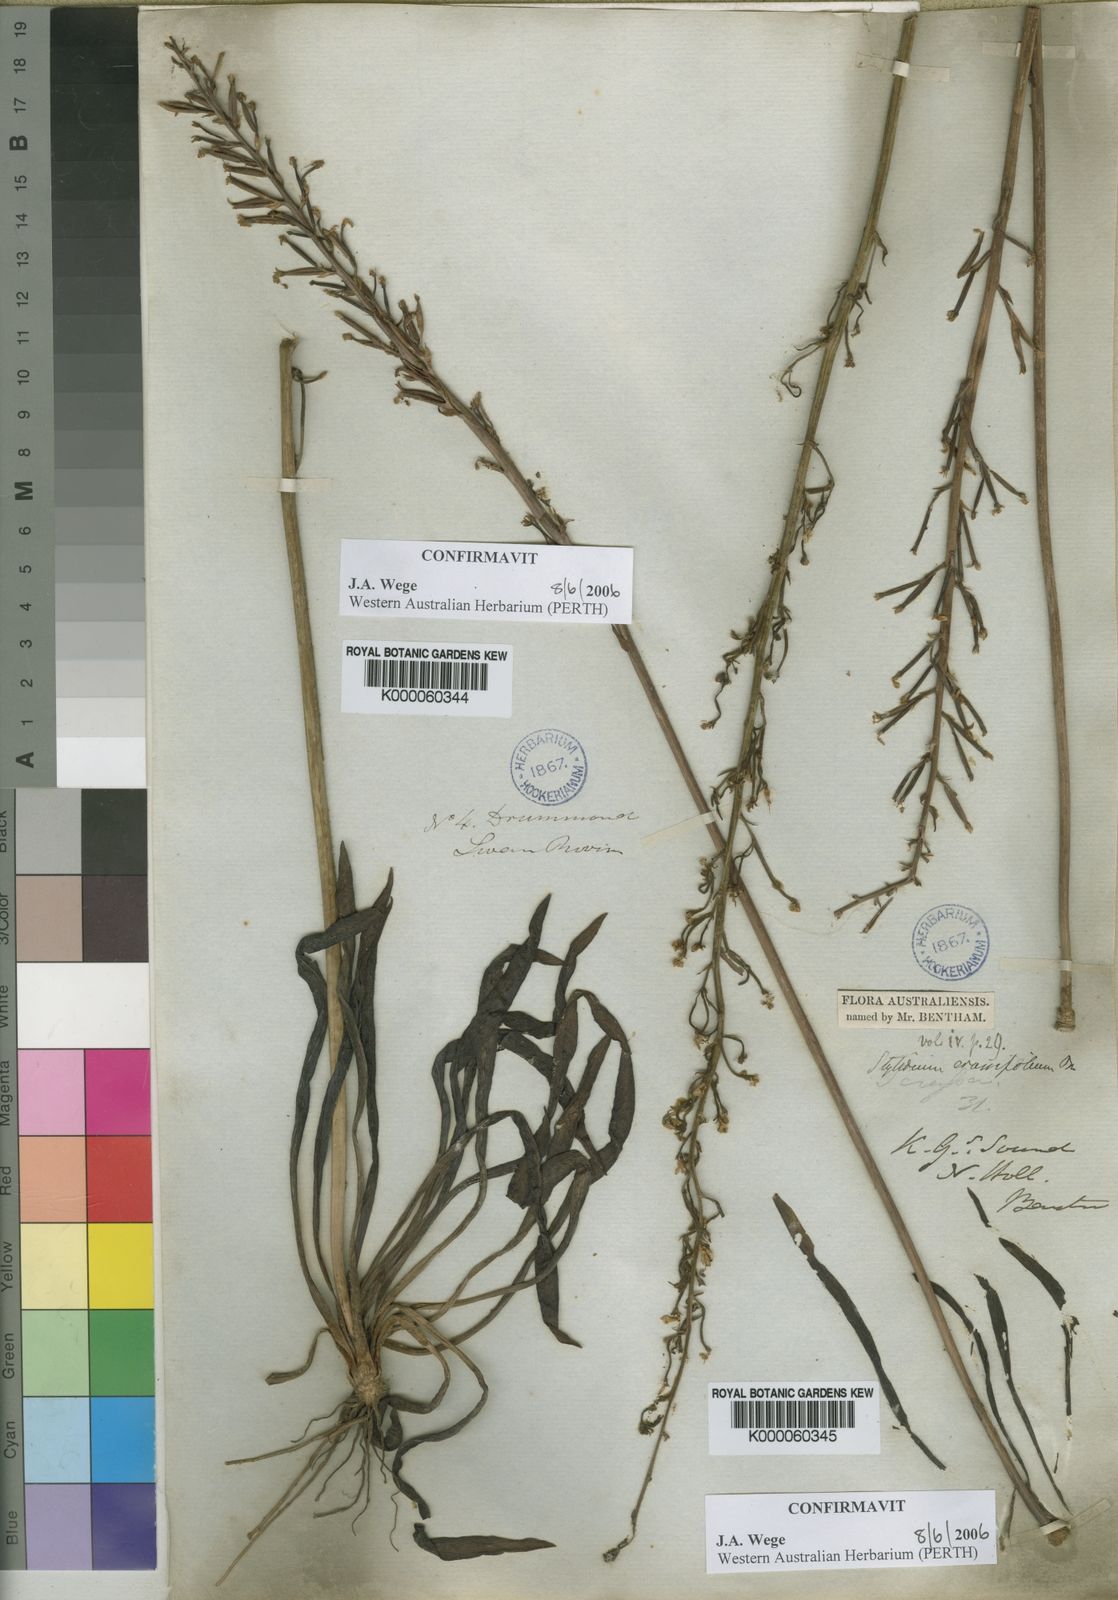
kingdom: Plantae
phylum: Tracheophyta
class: Magnoliopsida
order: Asterales
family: Stylidiaceae
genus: Stylidium
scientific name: Stylidium crassifolium
